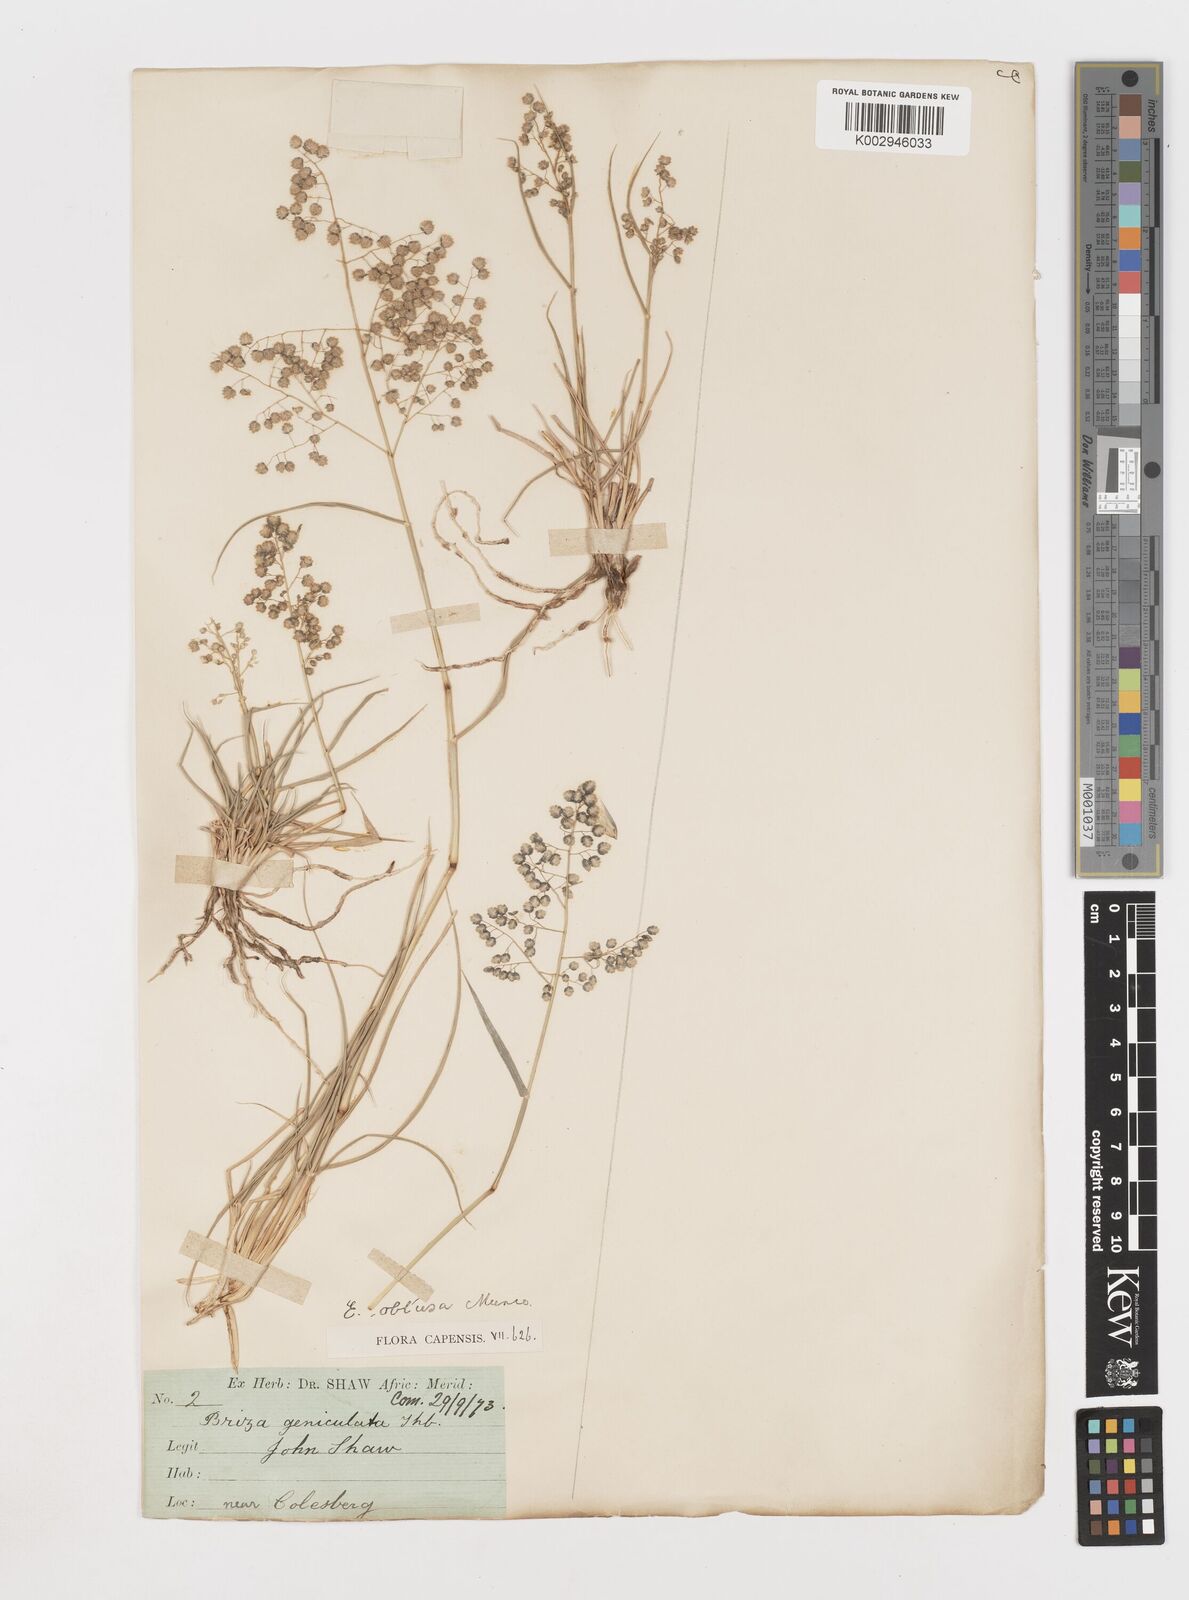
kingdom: Plantae
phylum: Tracheophyta
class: Liliopsida
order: Poales
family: Poaceae
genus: Eragrostis
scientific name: Eragrostis obtusa
